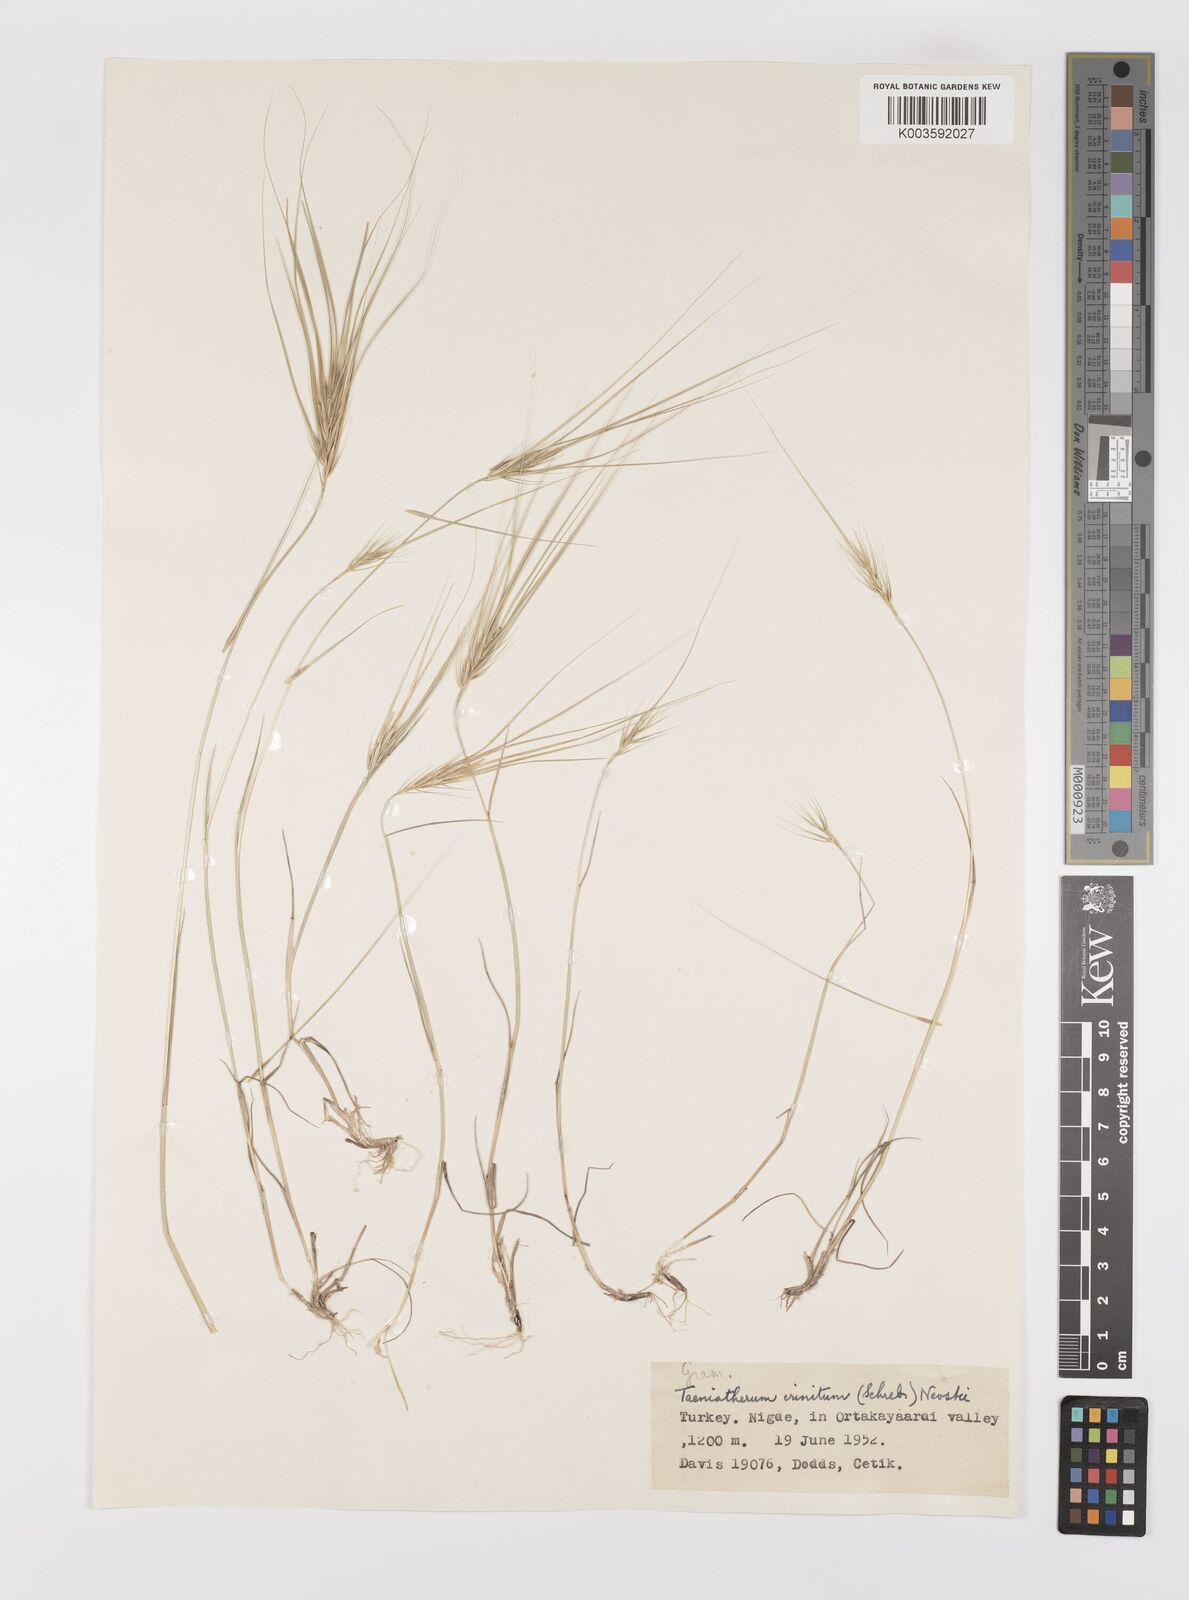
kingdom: Plantae
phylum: Tracheophyta
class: Liliopsida
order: Poales
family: Poaceae
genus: Taeniatherum
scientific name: Taeniatherum caput-medusae
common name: Medusahead
